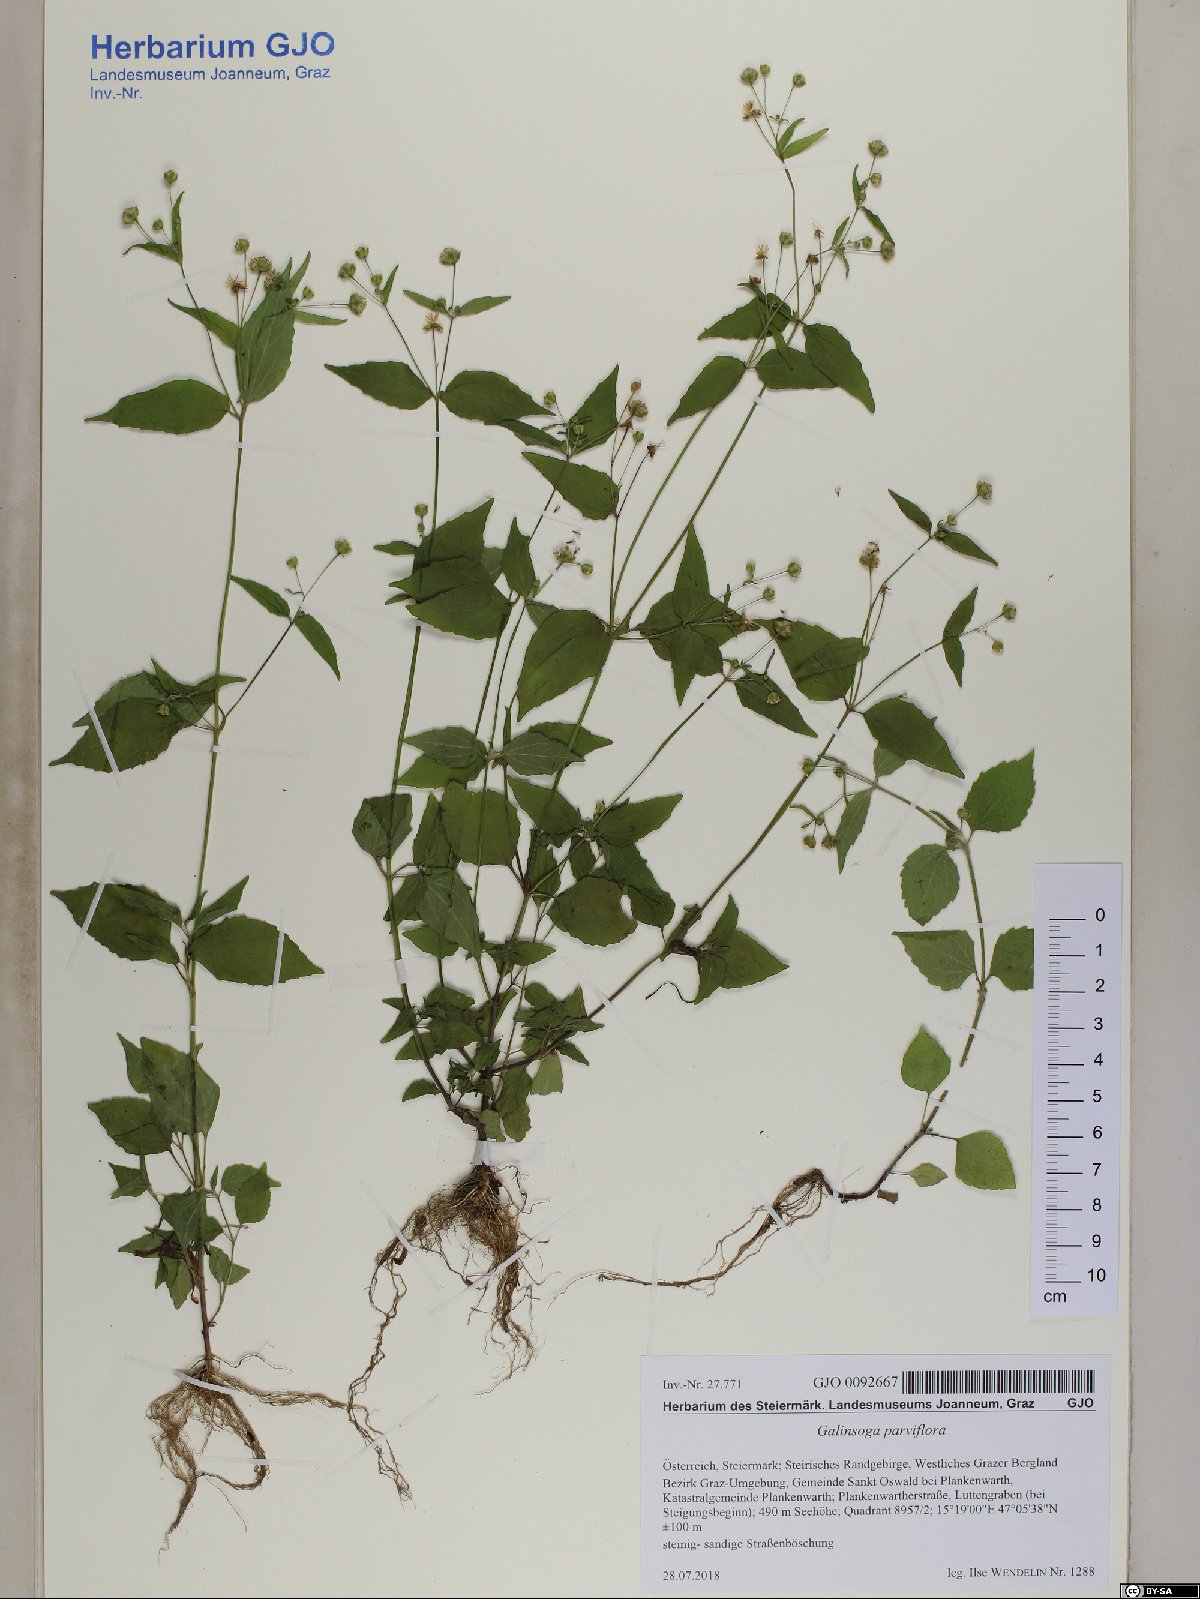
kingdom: Plantae
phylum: Tracheophyta
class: Magnoliopsida
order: Asterales
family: Asteraceae
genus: Galinsoga
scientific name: Galinsoga parviflora
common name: Gallant soldier
